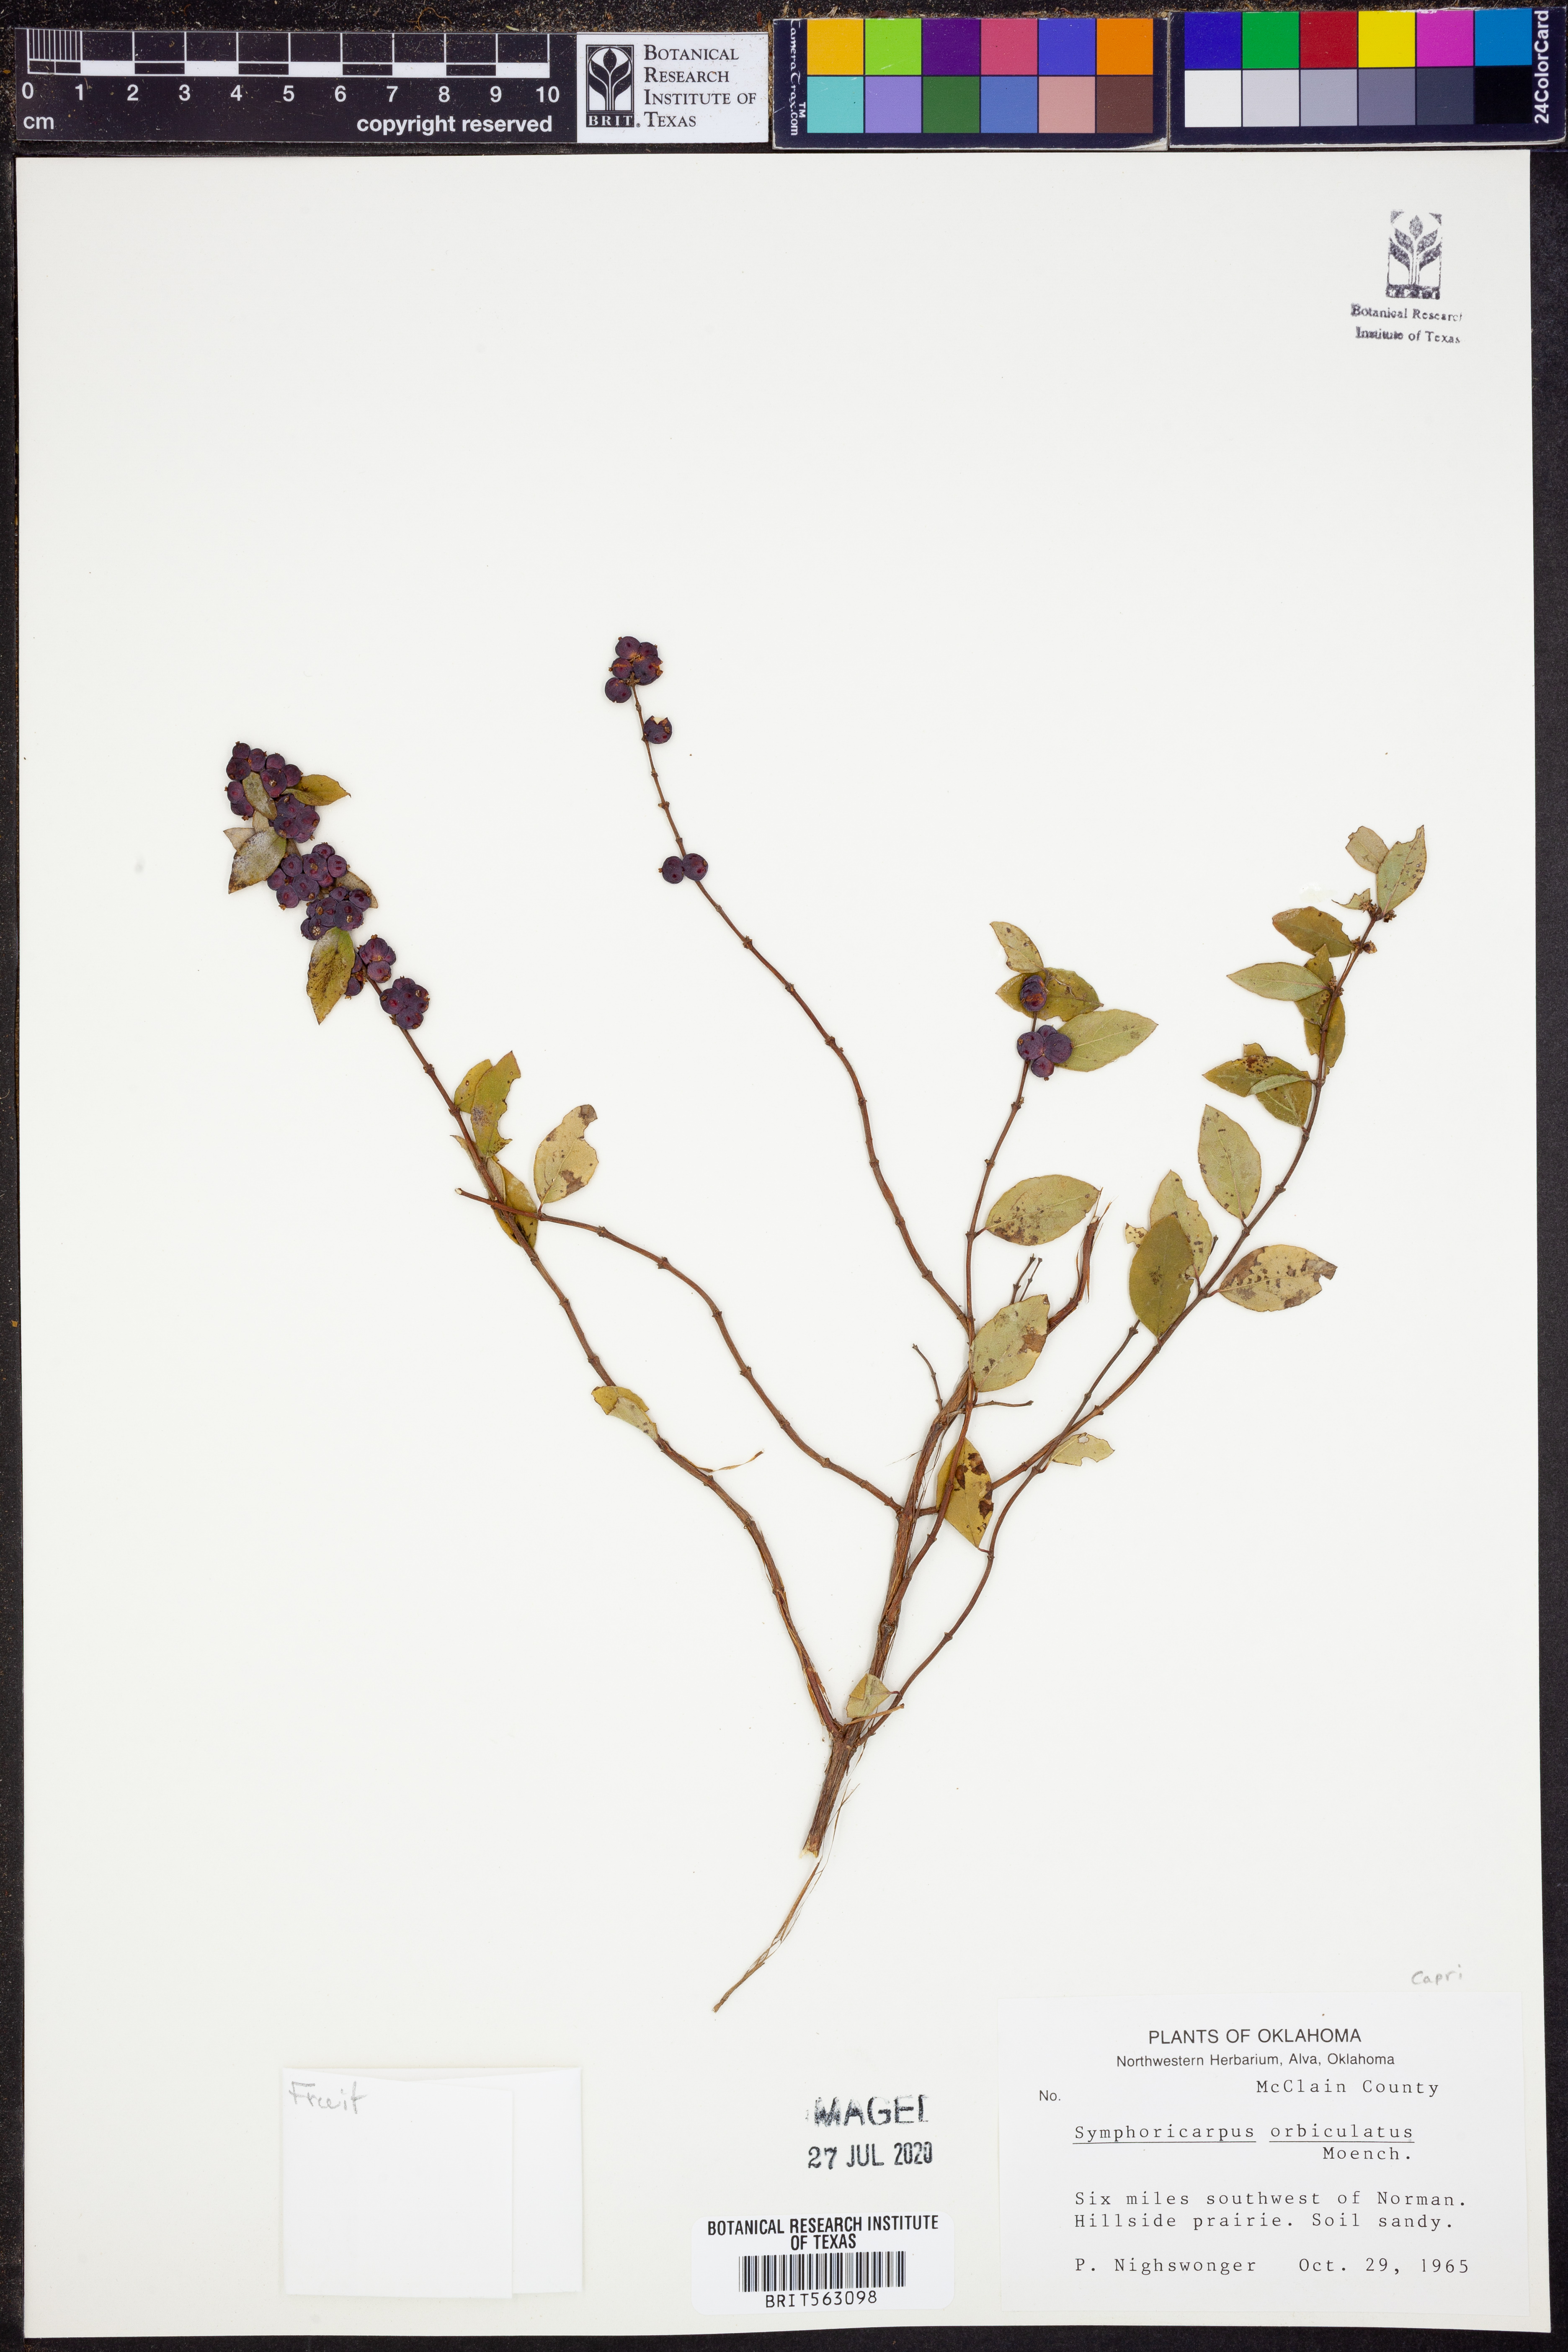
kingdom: Plantae
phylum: Tracheophyta
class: Magnoliopsida
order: Dipsacales
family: Caprifoliaceae
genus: Symphoricarpos
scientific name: Symphoricarpos orbiculatus
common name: Coralberry
